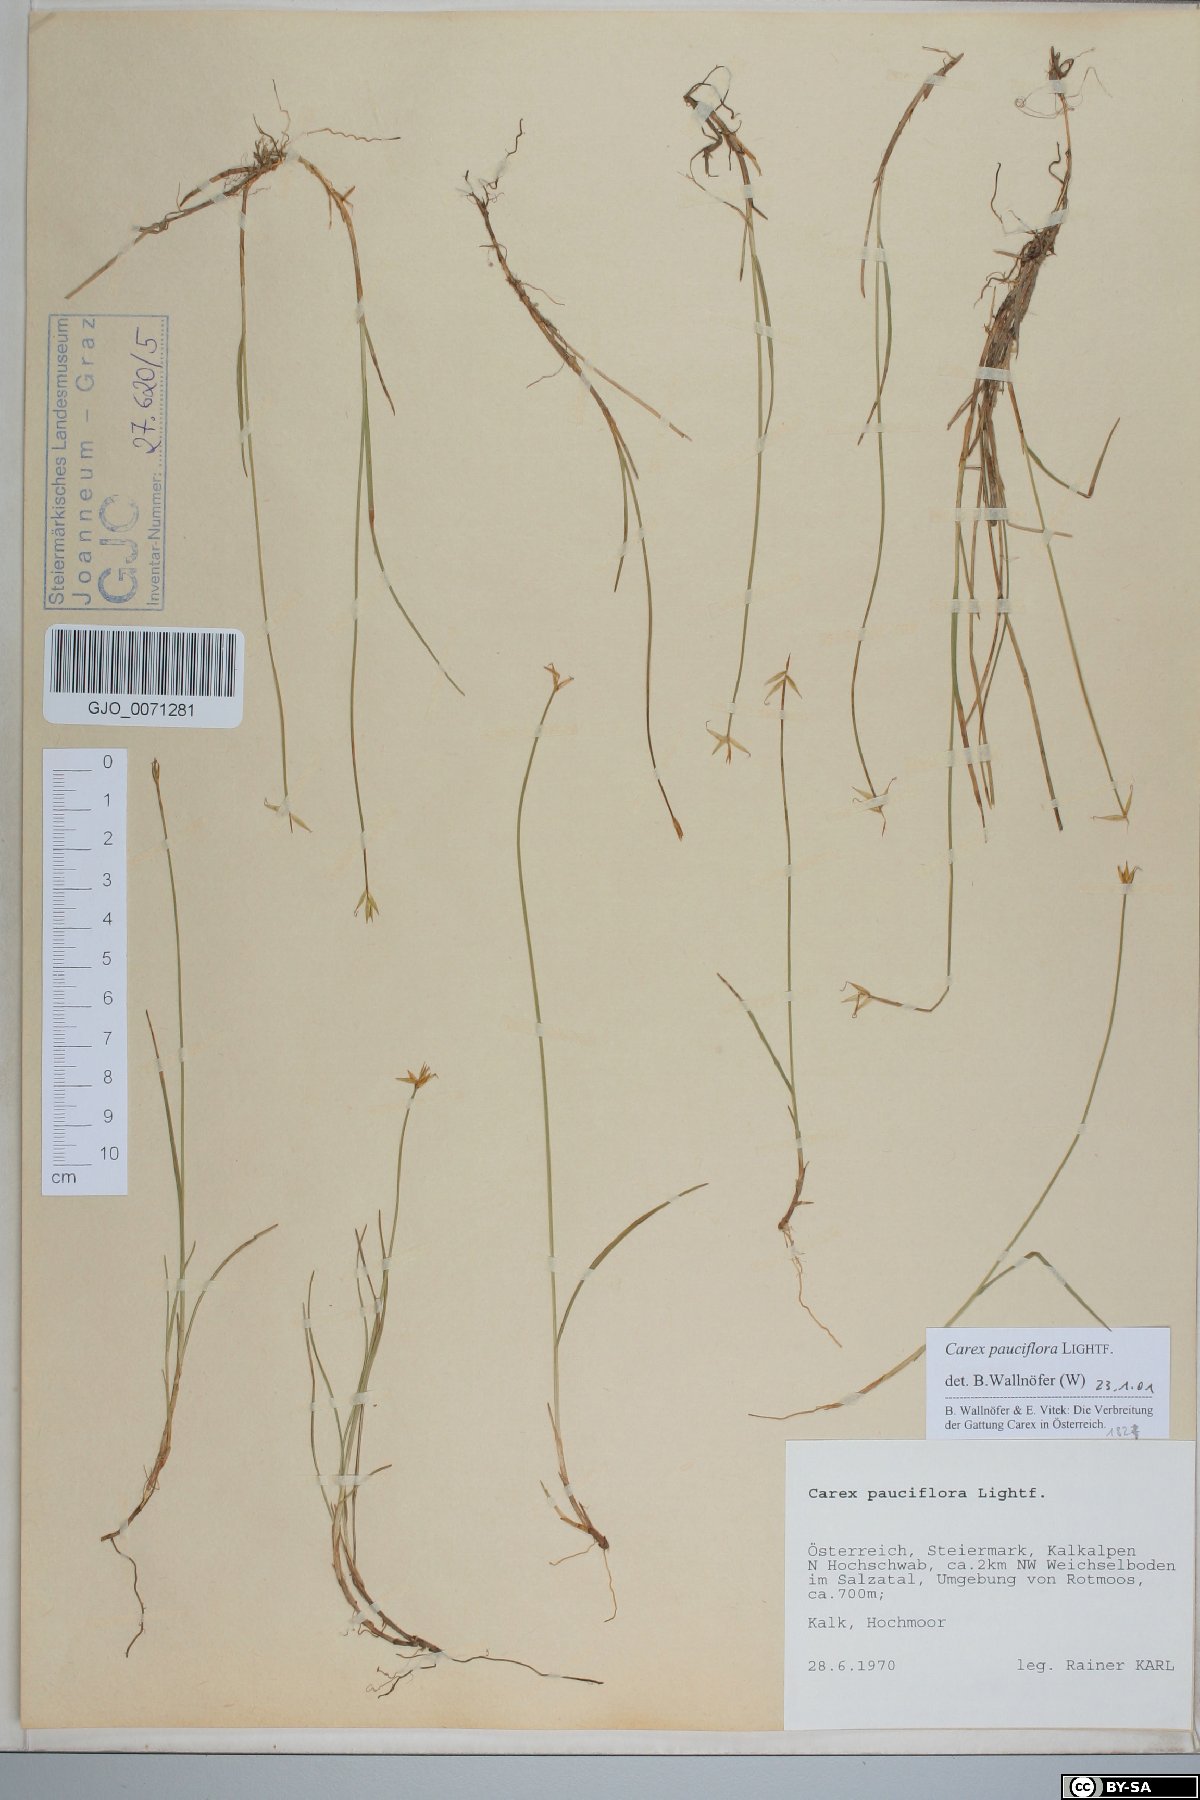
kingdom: Plantae
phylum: Tracheophyta
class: Liliopsida
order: Poales
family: Cyperaceae
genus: Carex
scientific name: Carex pauciflora
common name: Few-flowered sedge
